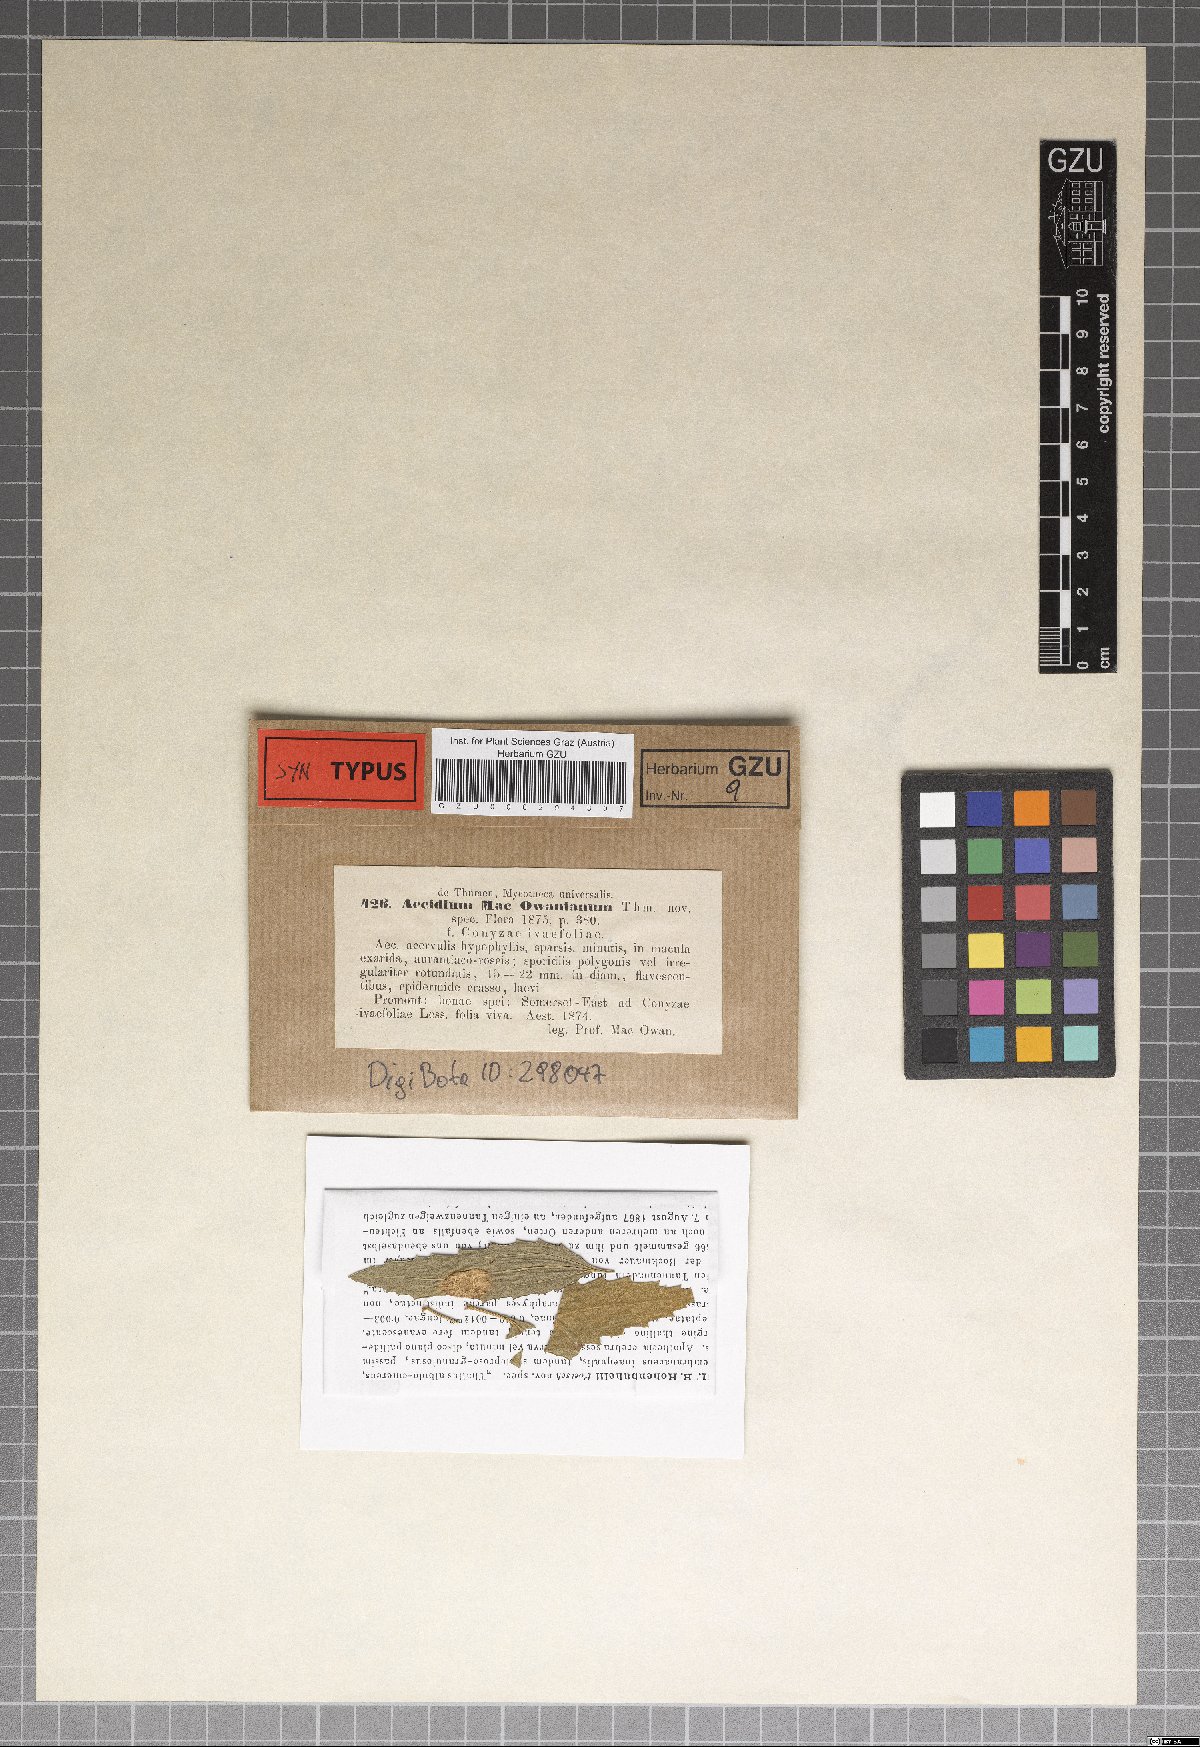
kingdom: Fungi
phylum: Basidiomycota
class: Pucciniomycetes
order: Pucciniales
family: Pucciniaceae
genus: Endophyllum
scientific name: Endophyllum macowanianum
